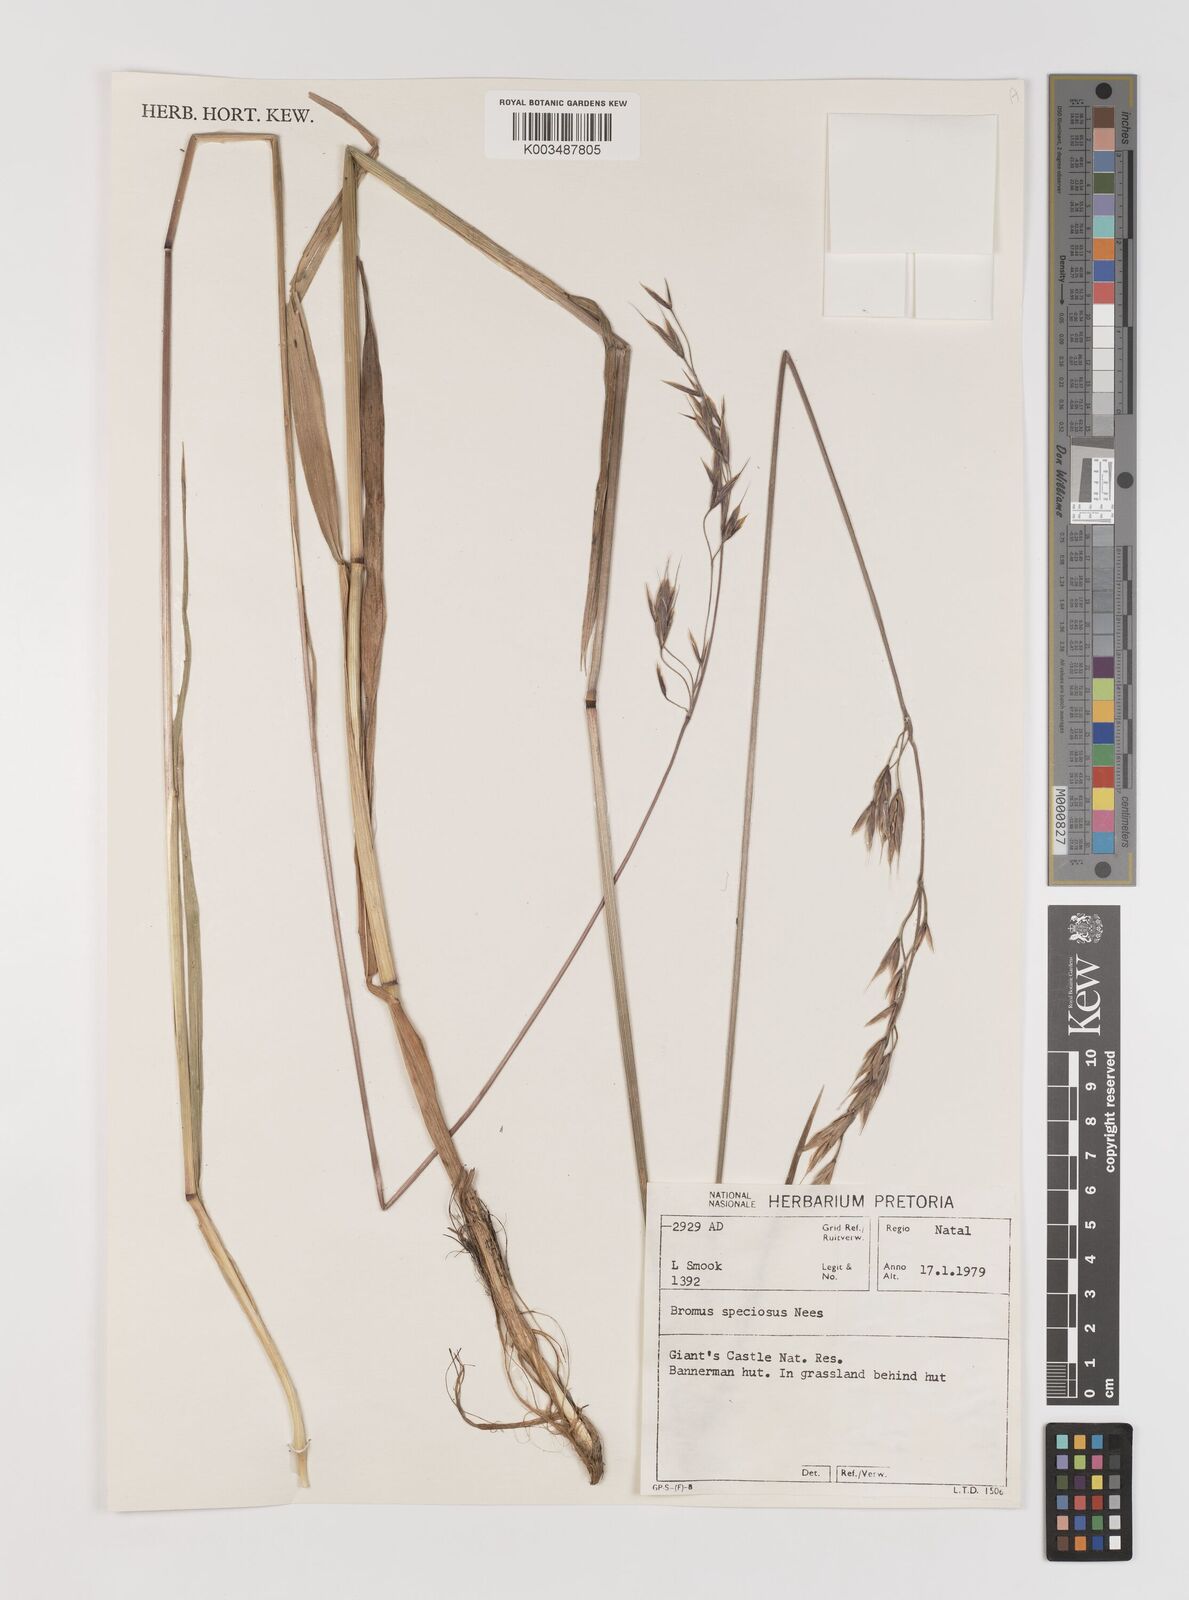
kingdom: Plantae
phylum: Tracheophyta
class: Liliopsida
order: Poales
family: Poaceae
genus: Bromus
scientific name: Bromus speciosus
